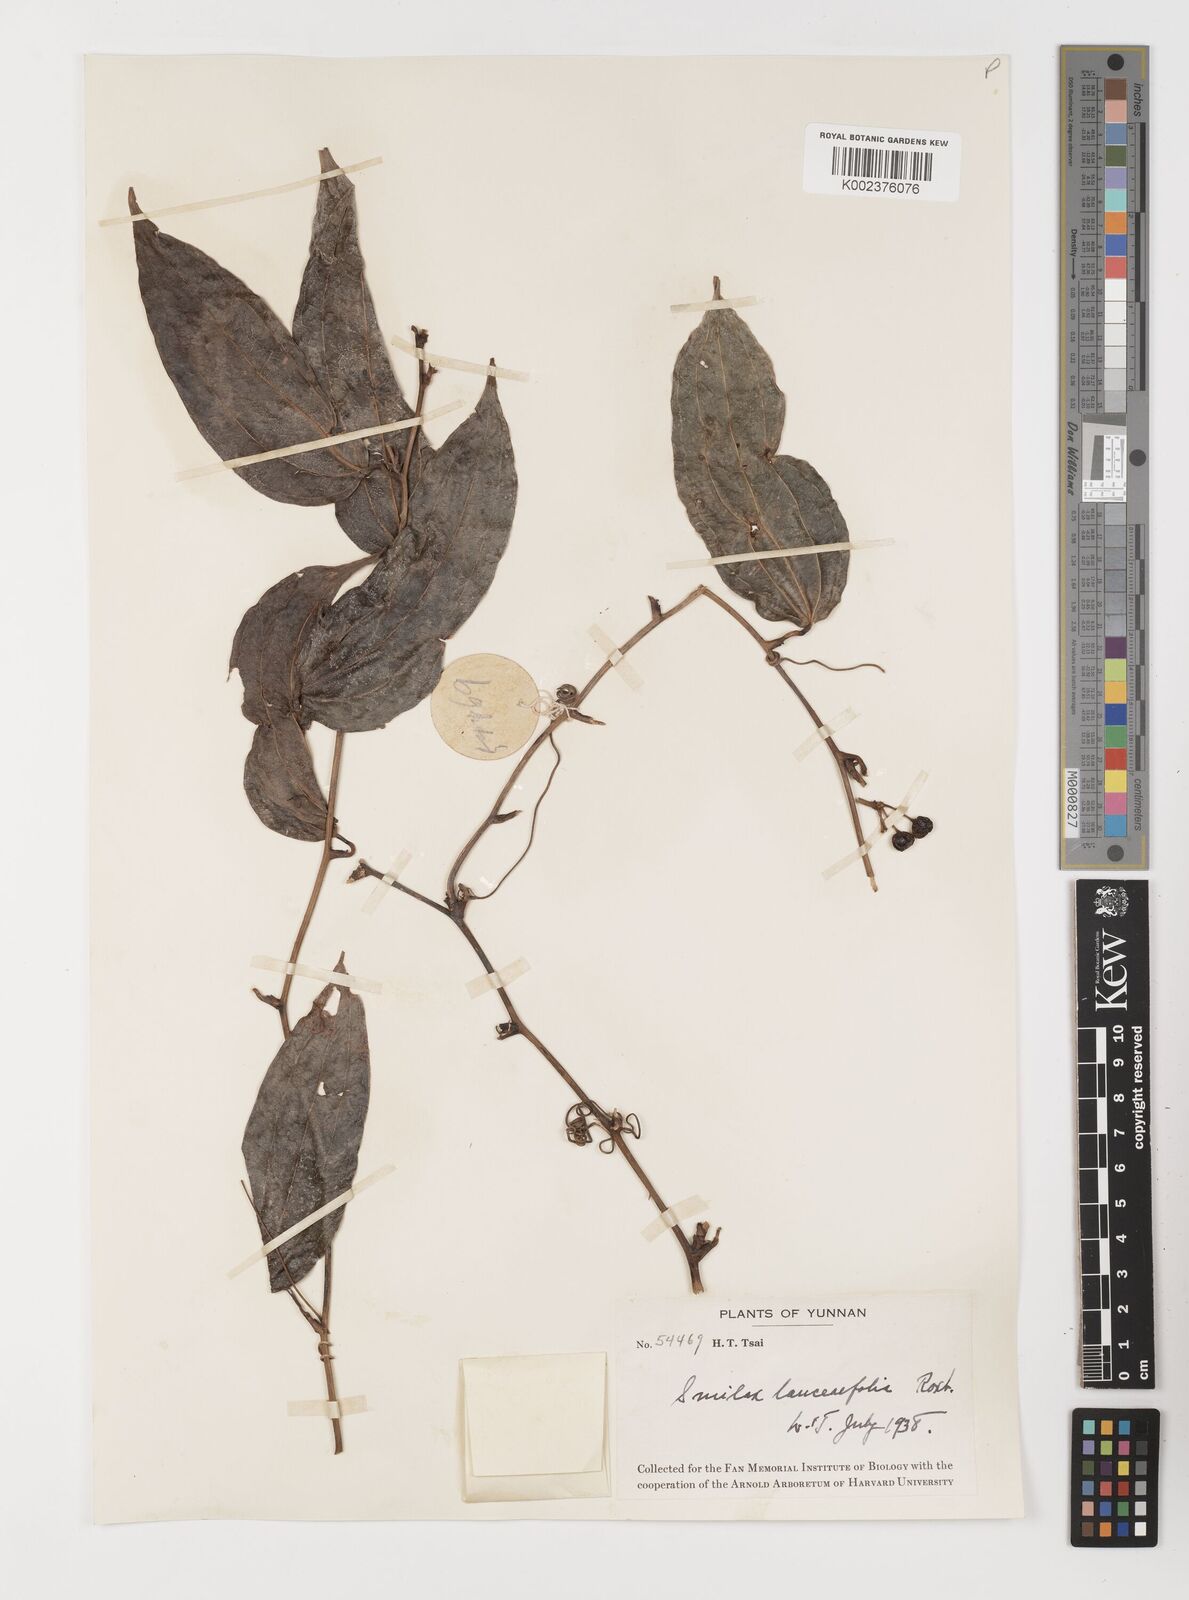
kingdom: Plantae
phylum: Tracheophyta
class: Liliopsida
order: Liliales
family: Smilacaceae
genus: Smilax
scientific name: Smilax lanceifolia
